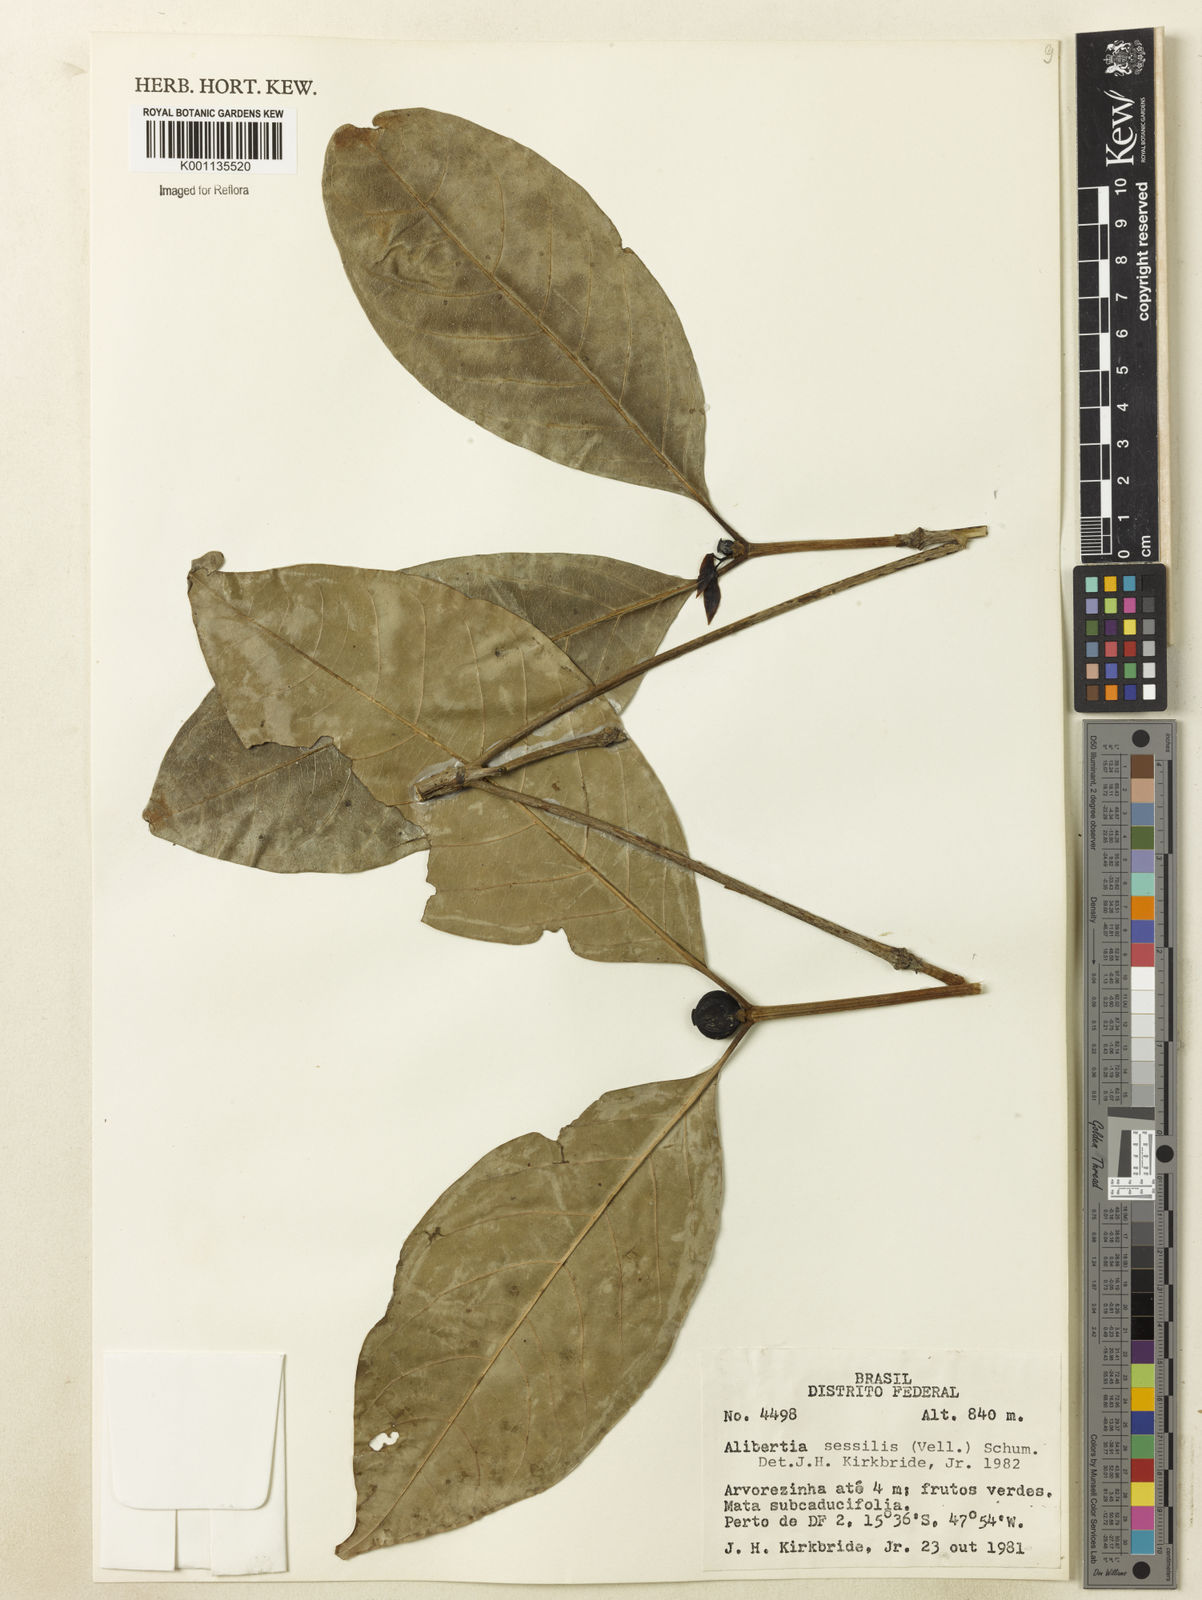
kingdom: Plantae
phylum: Tracheophyta
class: Magnoliopsida
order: Gentianales
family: Rubiaceae
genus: Cordiera
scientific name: Cordiera sessilis
